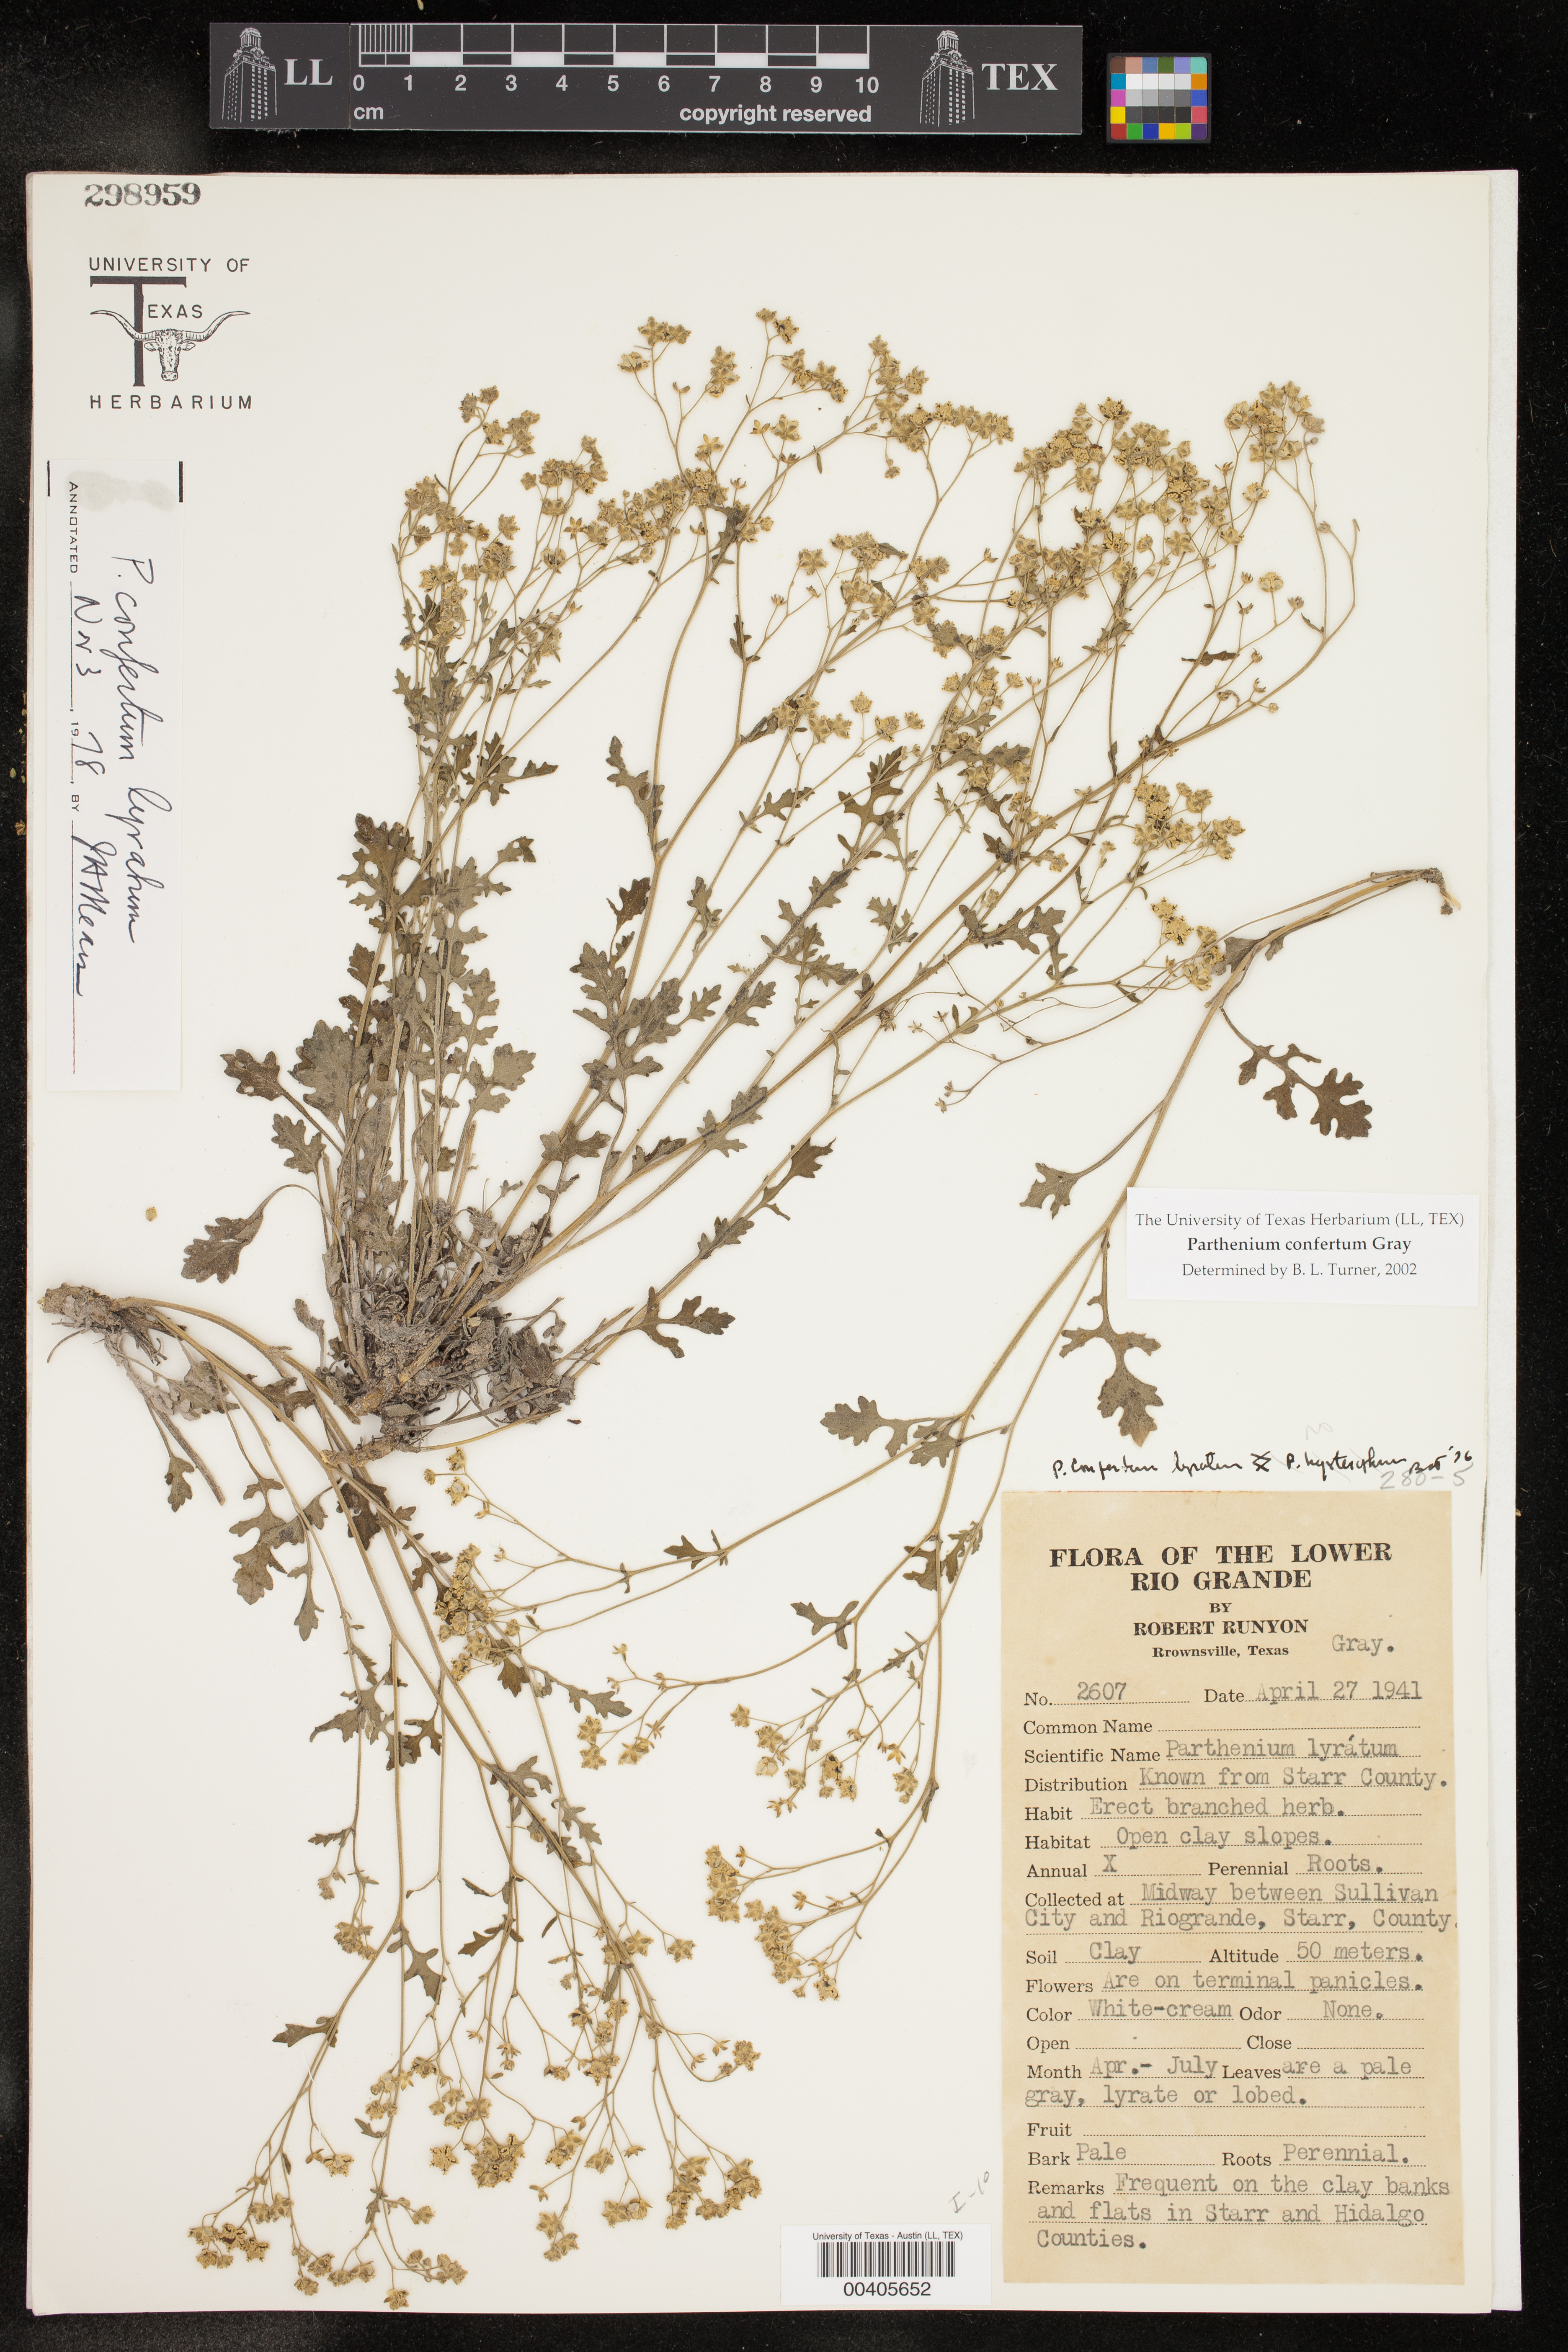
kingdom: Plantae
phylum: Tracheophyta
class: Magnoliopsida
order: Asterales
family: Asteraceae
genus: Parthenium
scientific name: Parthenium confertum
